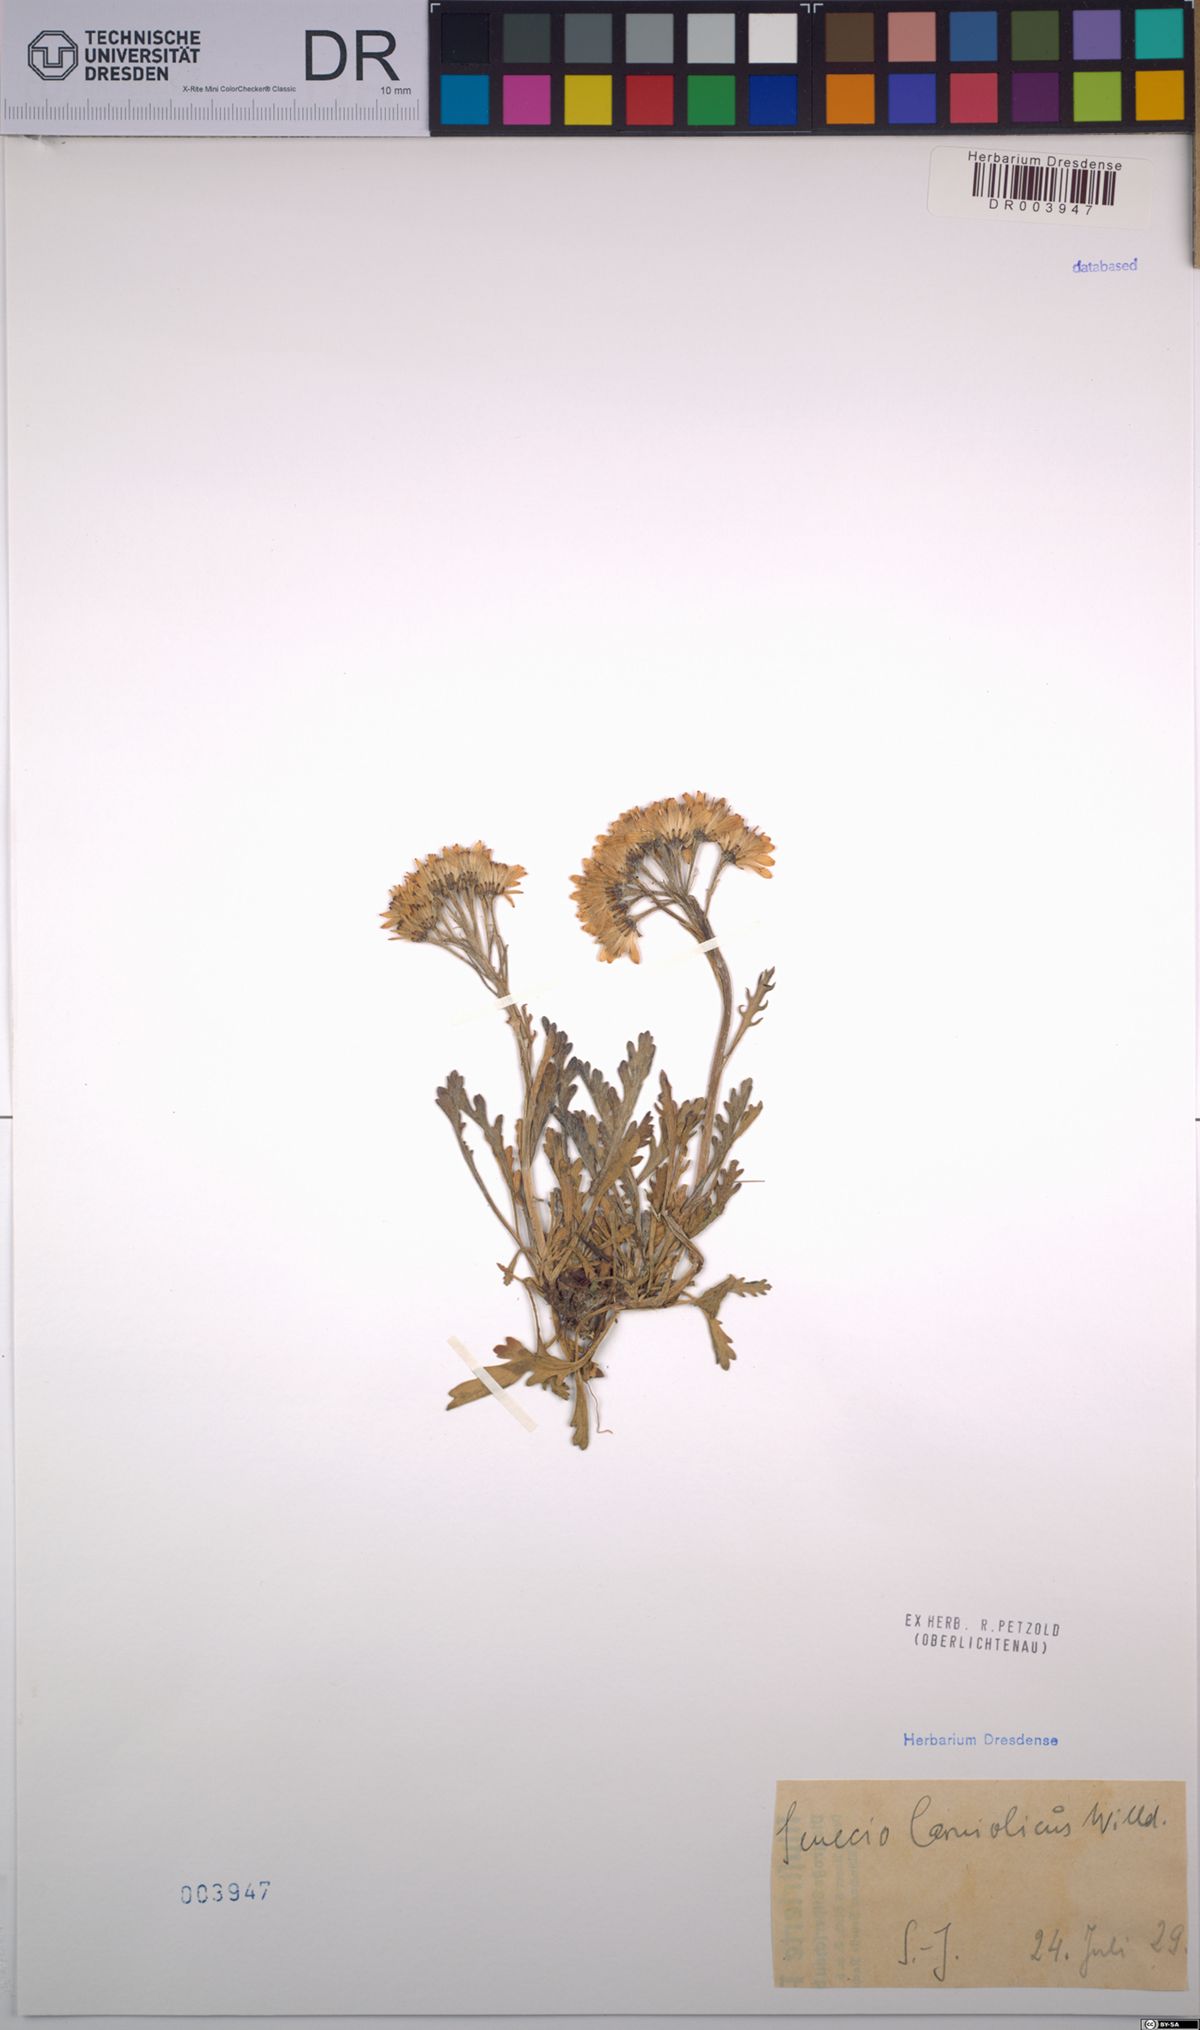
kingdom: Plantae
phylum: Tracheophyta
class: Magnoliopsida
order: Asterales
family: Asteraceae
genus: Jacobaea
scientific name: Jacobaea carniolica
